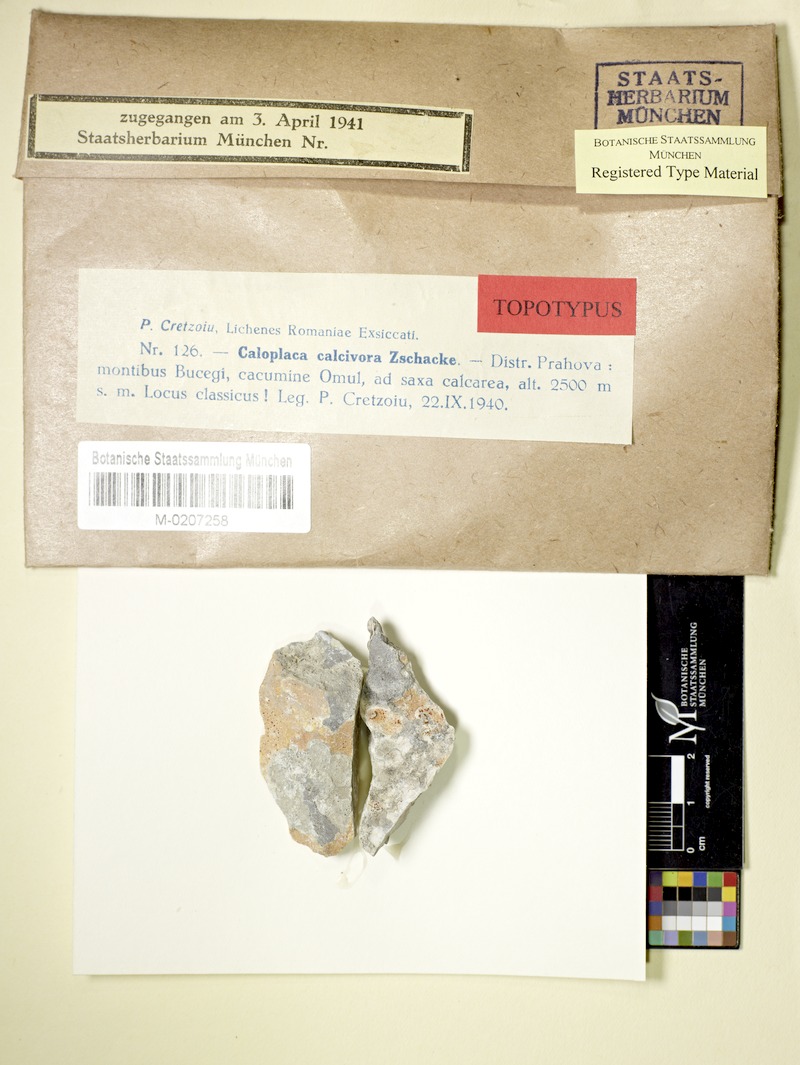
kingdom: Fungi
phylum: Ascomycota
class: Lecanoromycetes
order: Teloschistales
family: Teloschistaceae
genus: Caloplaca
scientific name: Caloplaca
